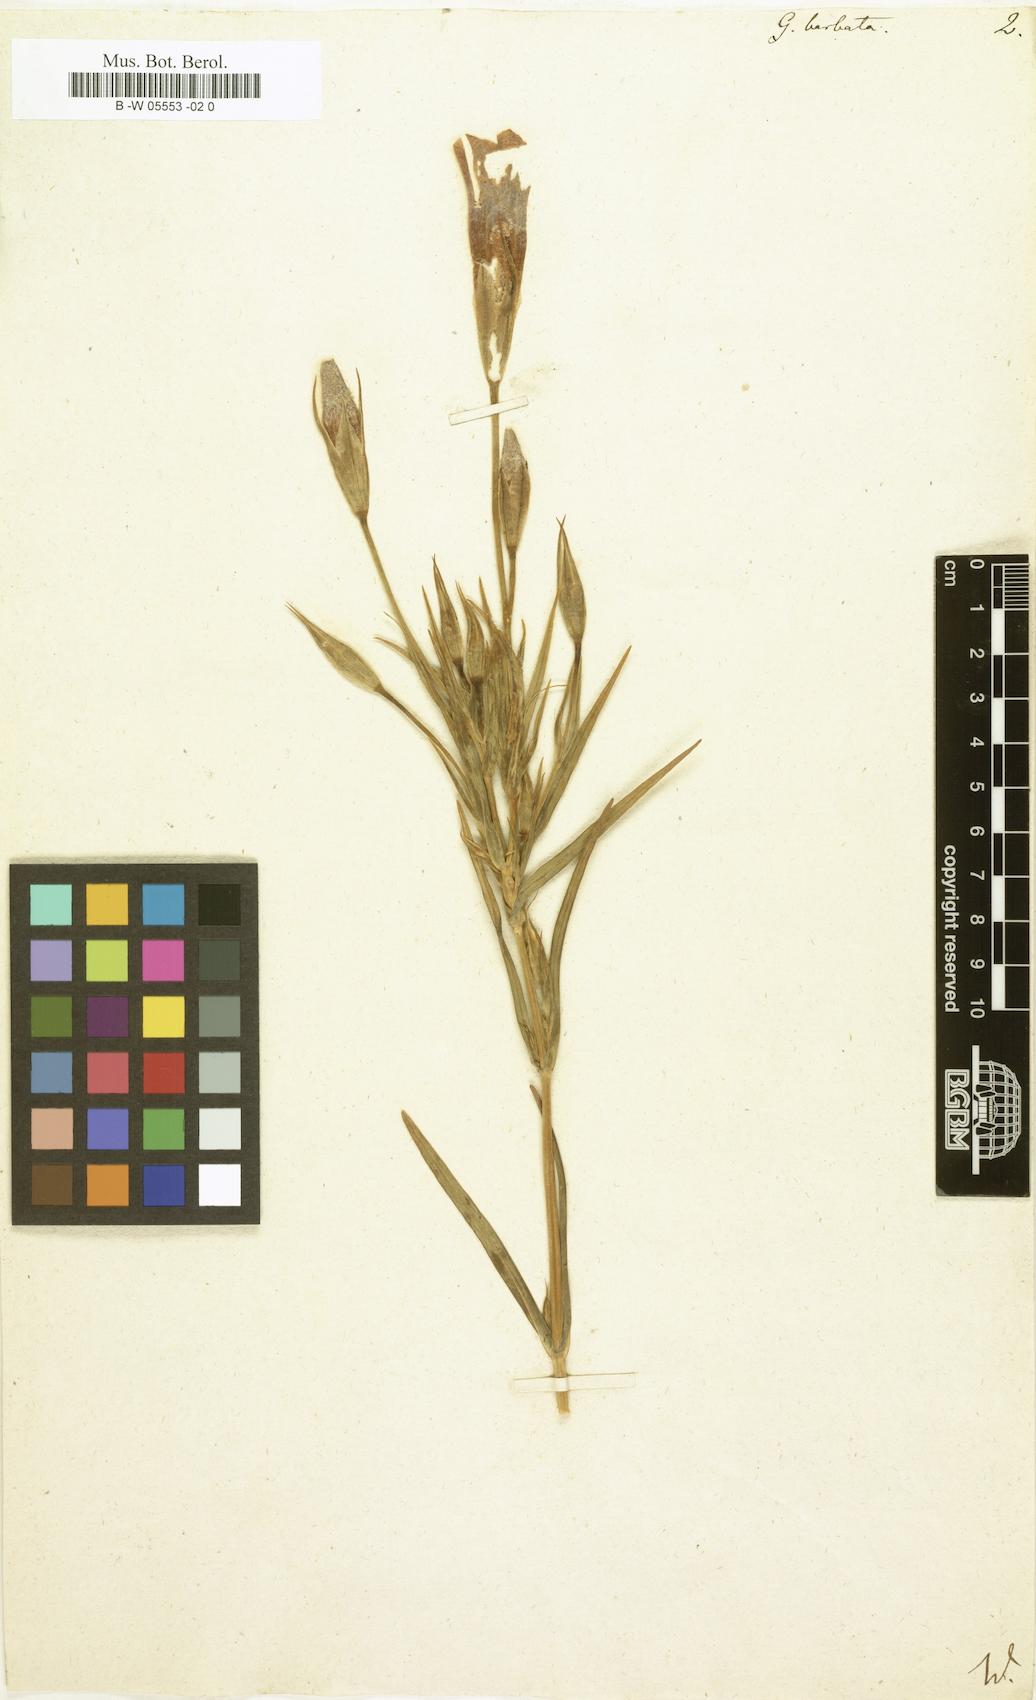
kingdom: Plantae
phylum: Tracheophyta
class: Magnoliopsida
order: Gentianales
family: Gentianaceae
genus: Gentianopsis
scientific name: Gentianopsis barbata
